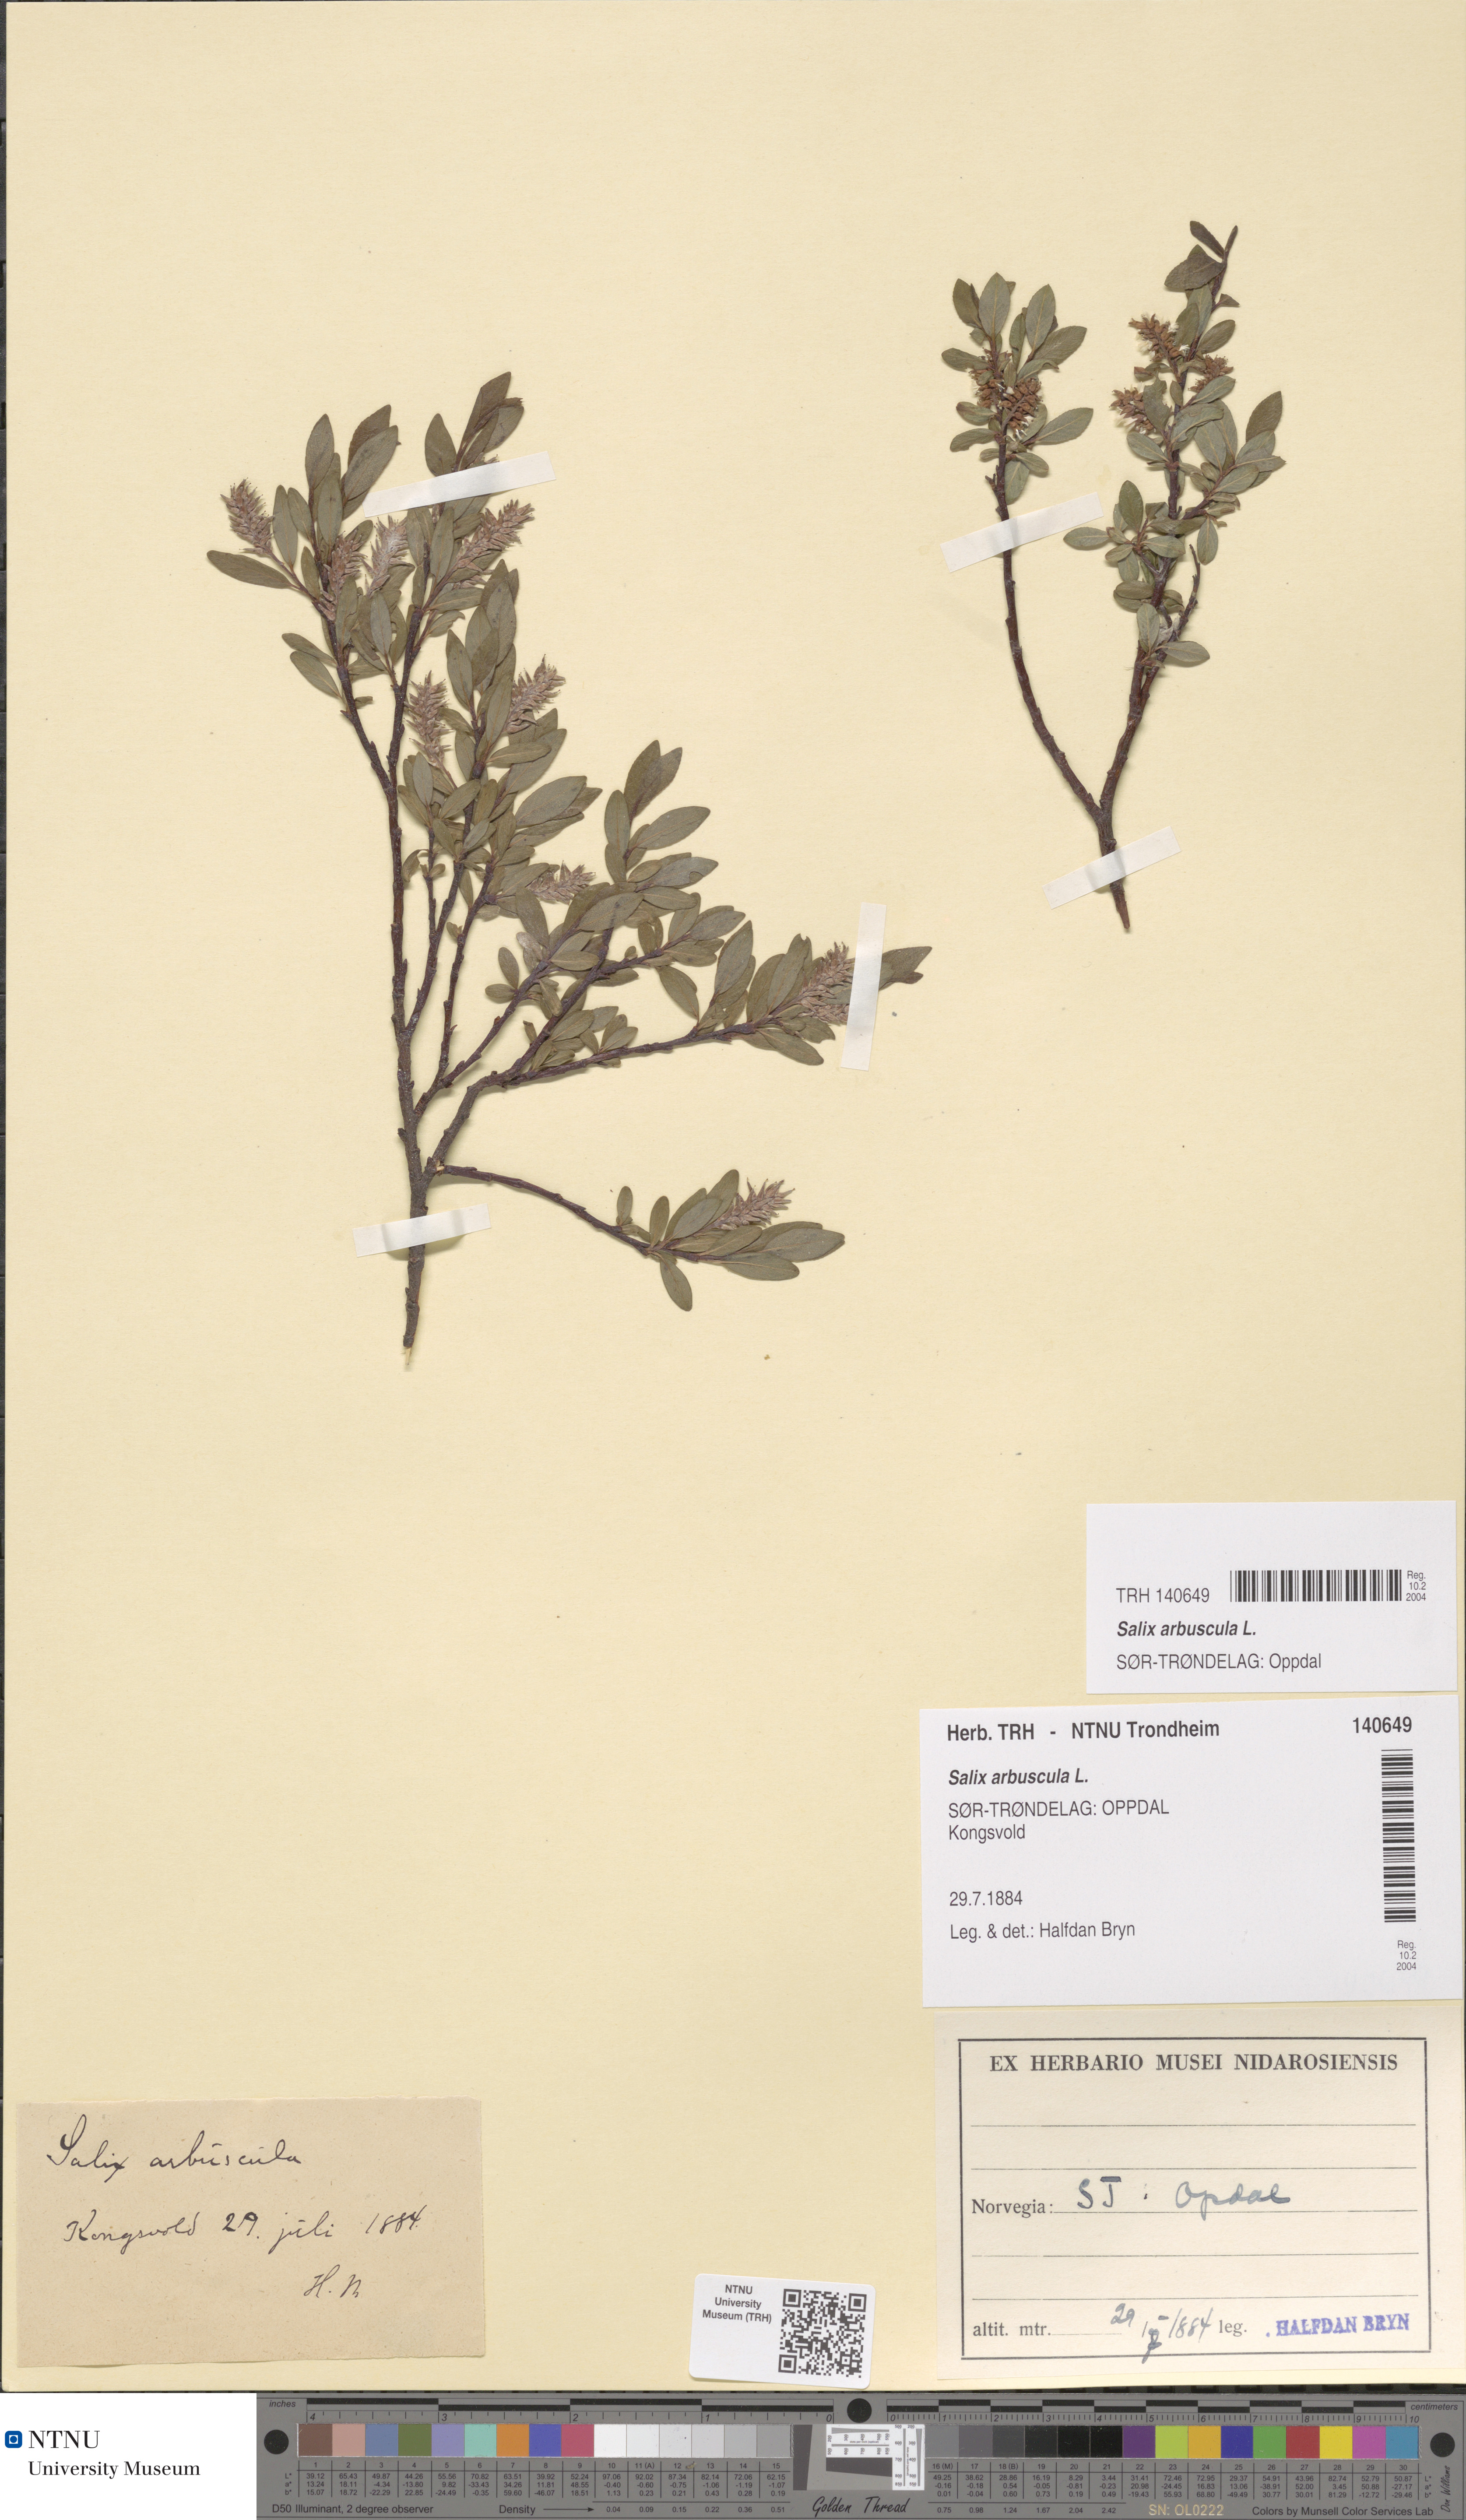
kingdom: Plantae
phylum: Tracheophyta
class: Magnoliopsida
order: Malpighiales
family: Salicaceae
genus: Salix
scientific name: Salix arbuscula
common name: Mountain willow
